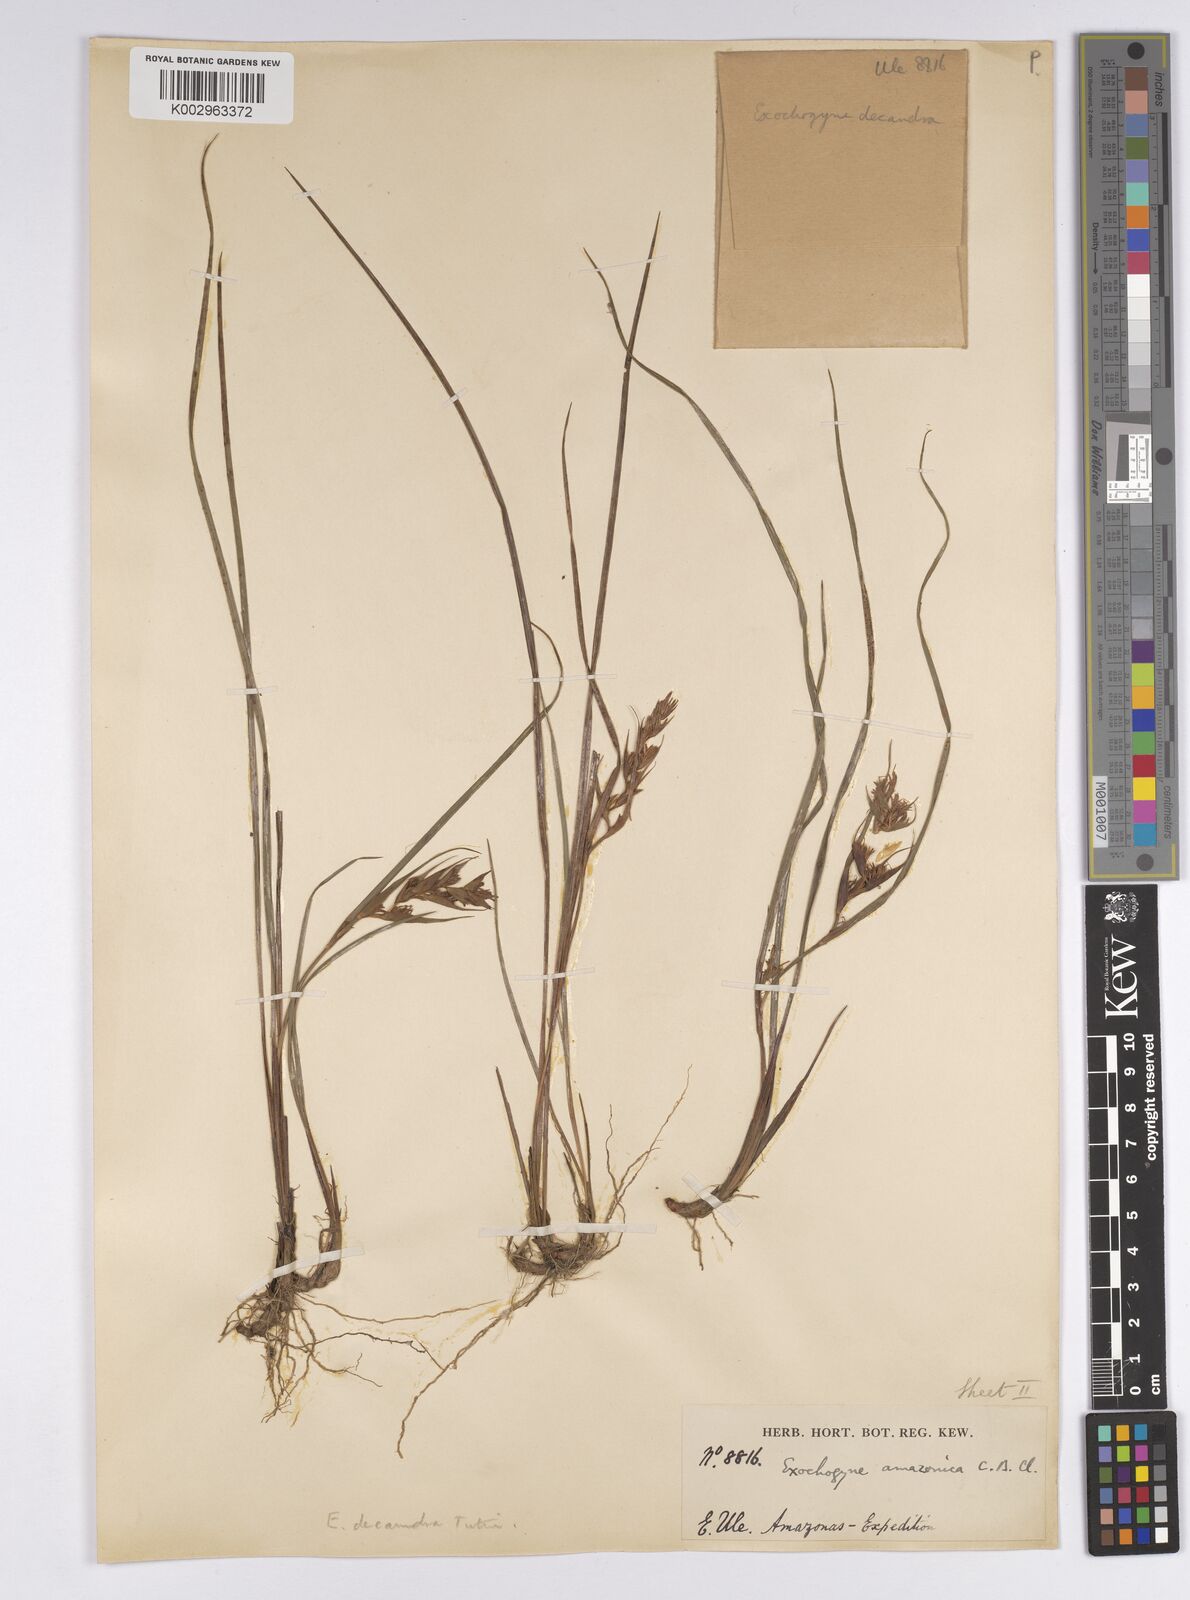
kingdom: Plantae
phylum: Tracheophyta
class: Liliopsida
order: Poales
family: Cyperaceae
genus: Exochogyne
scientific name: Exochogyne amazonica
